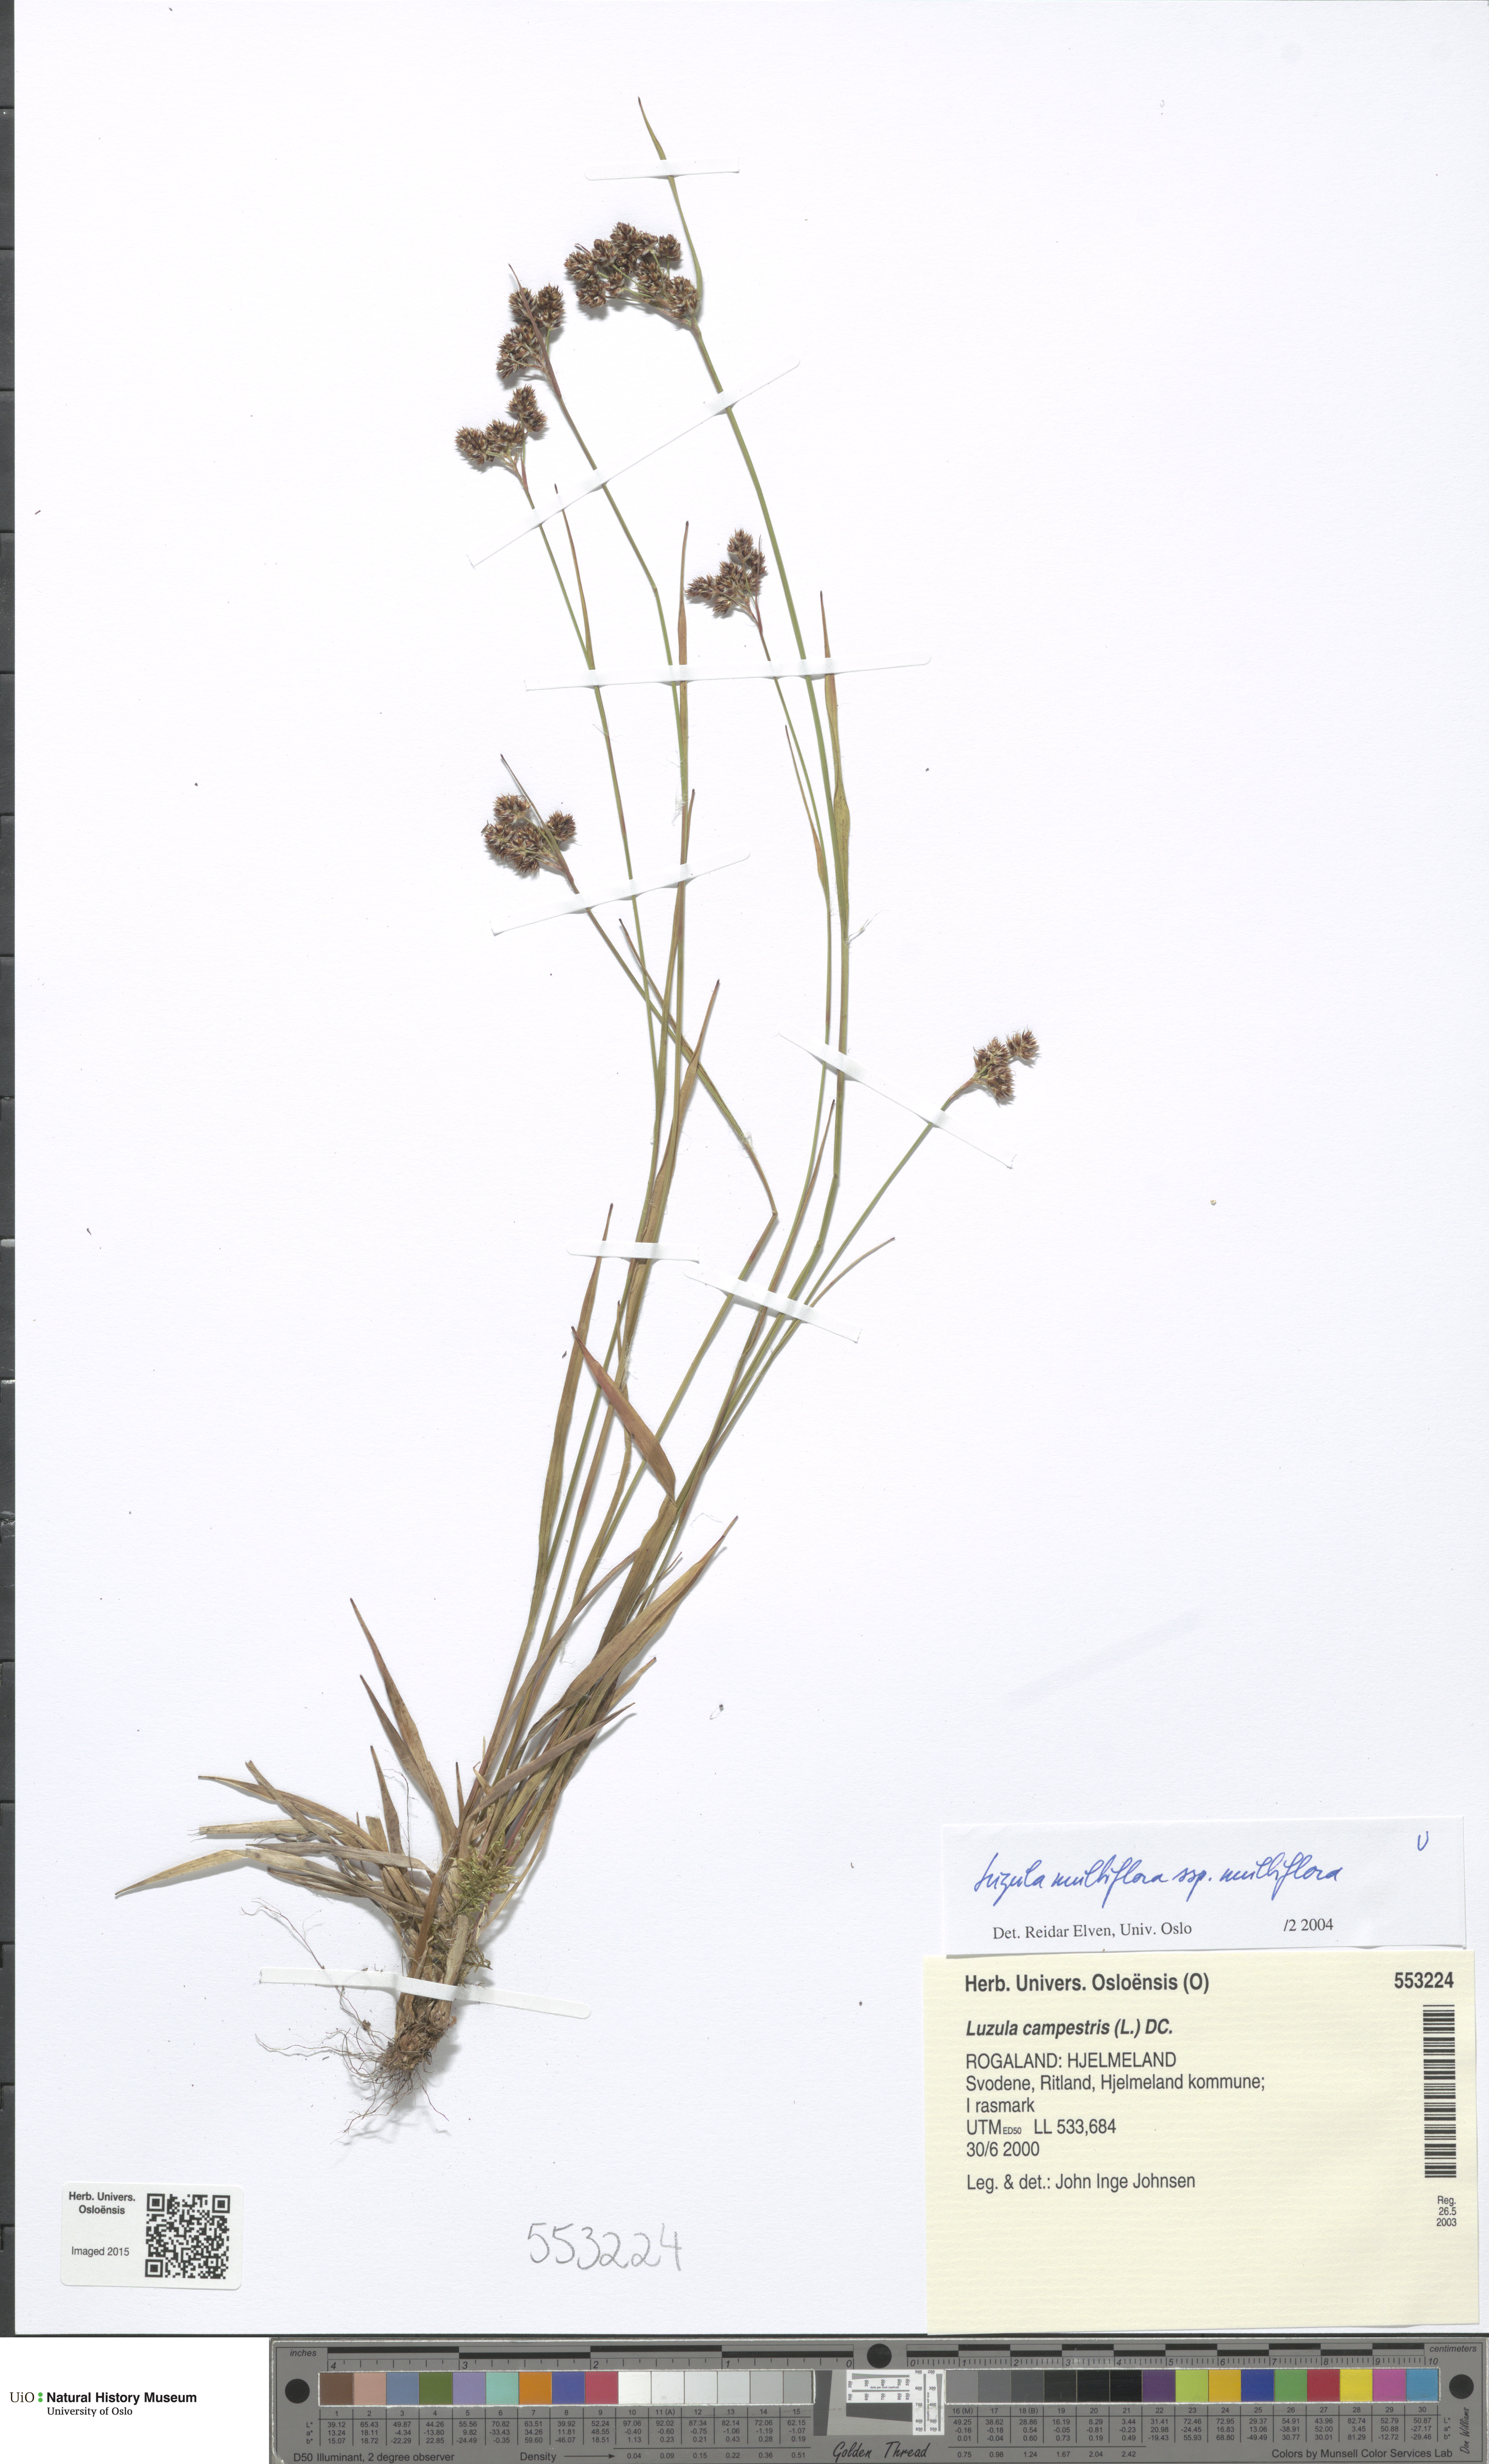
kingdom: Plantae
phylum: Tracheophyta
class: Liliopsida
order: Poales
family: Juncaceae
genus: Luzula
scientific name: Luzula multiflora
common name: Heath wood-rush
